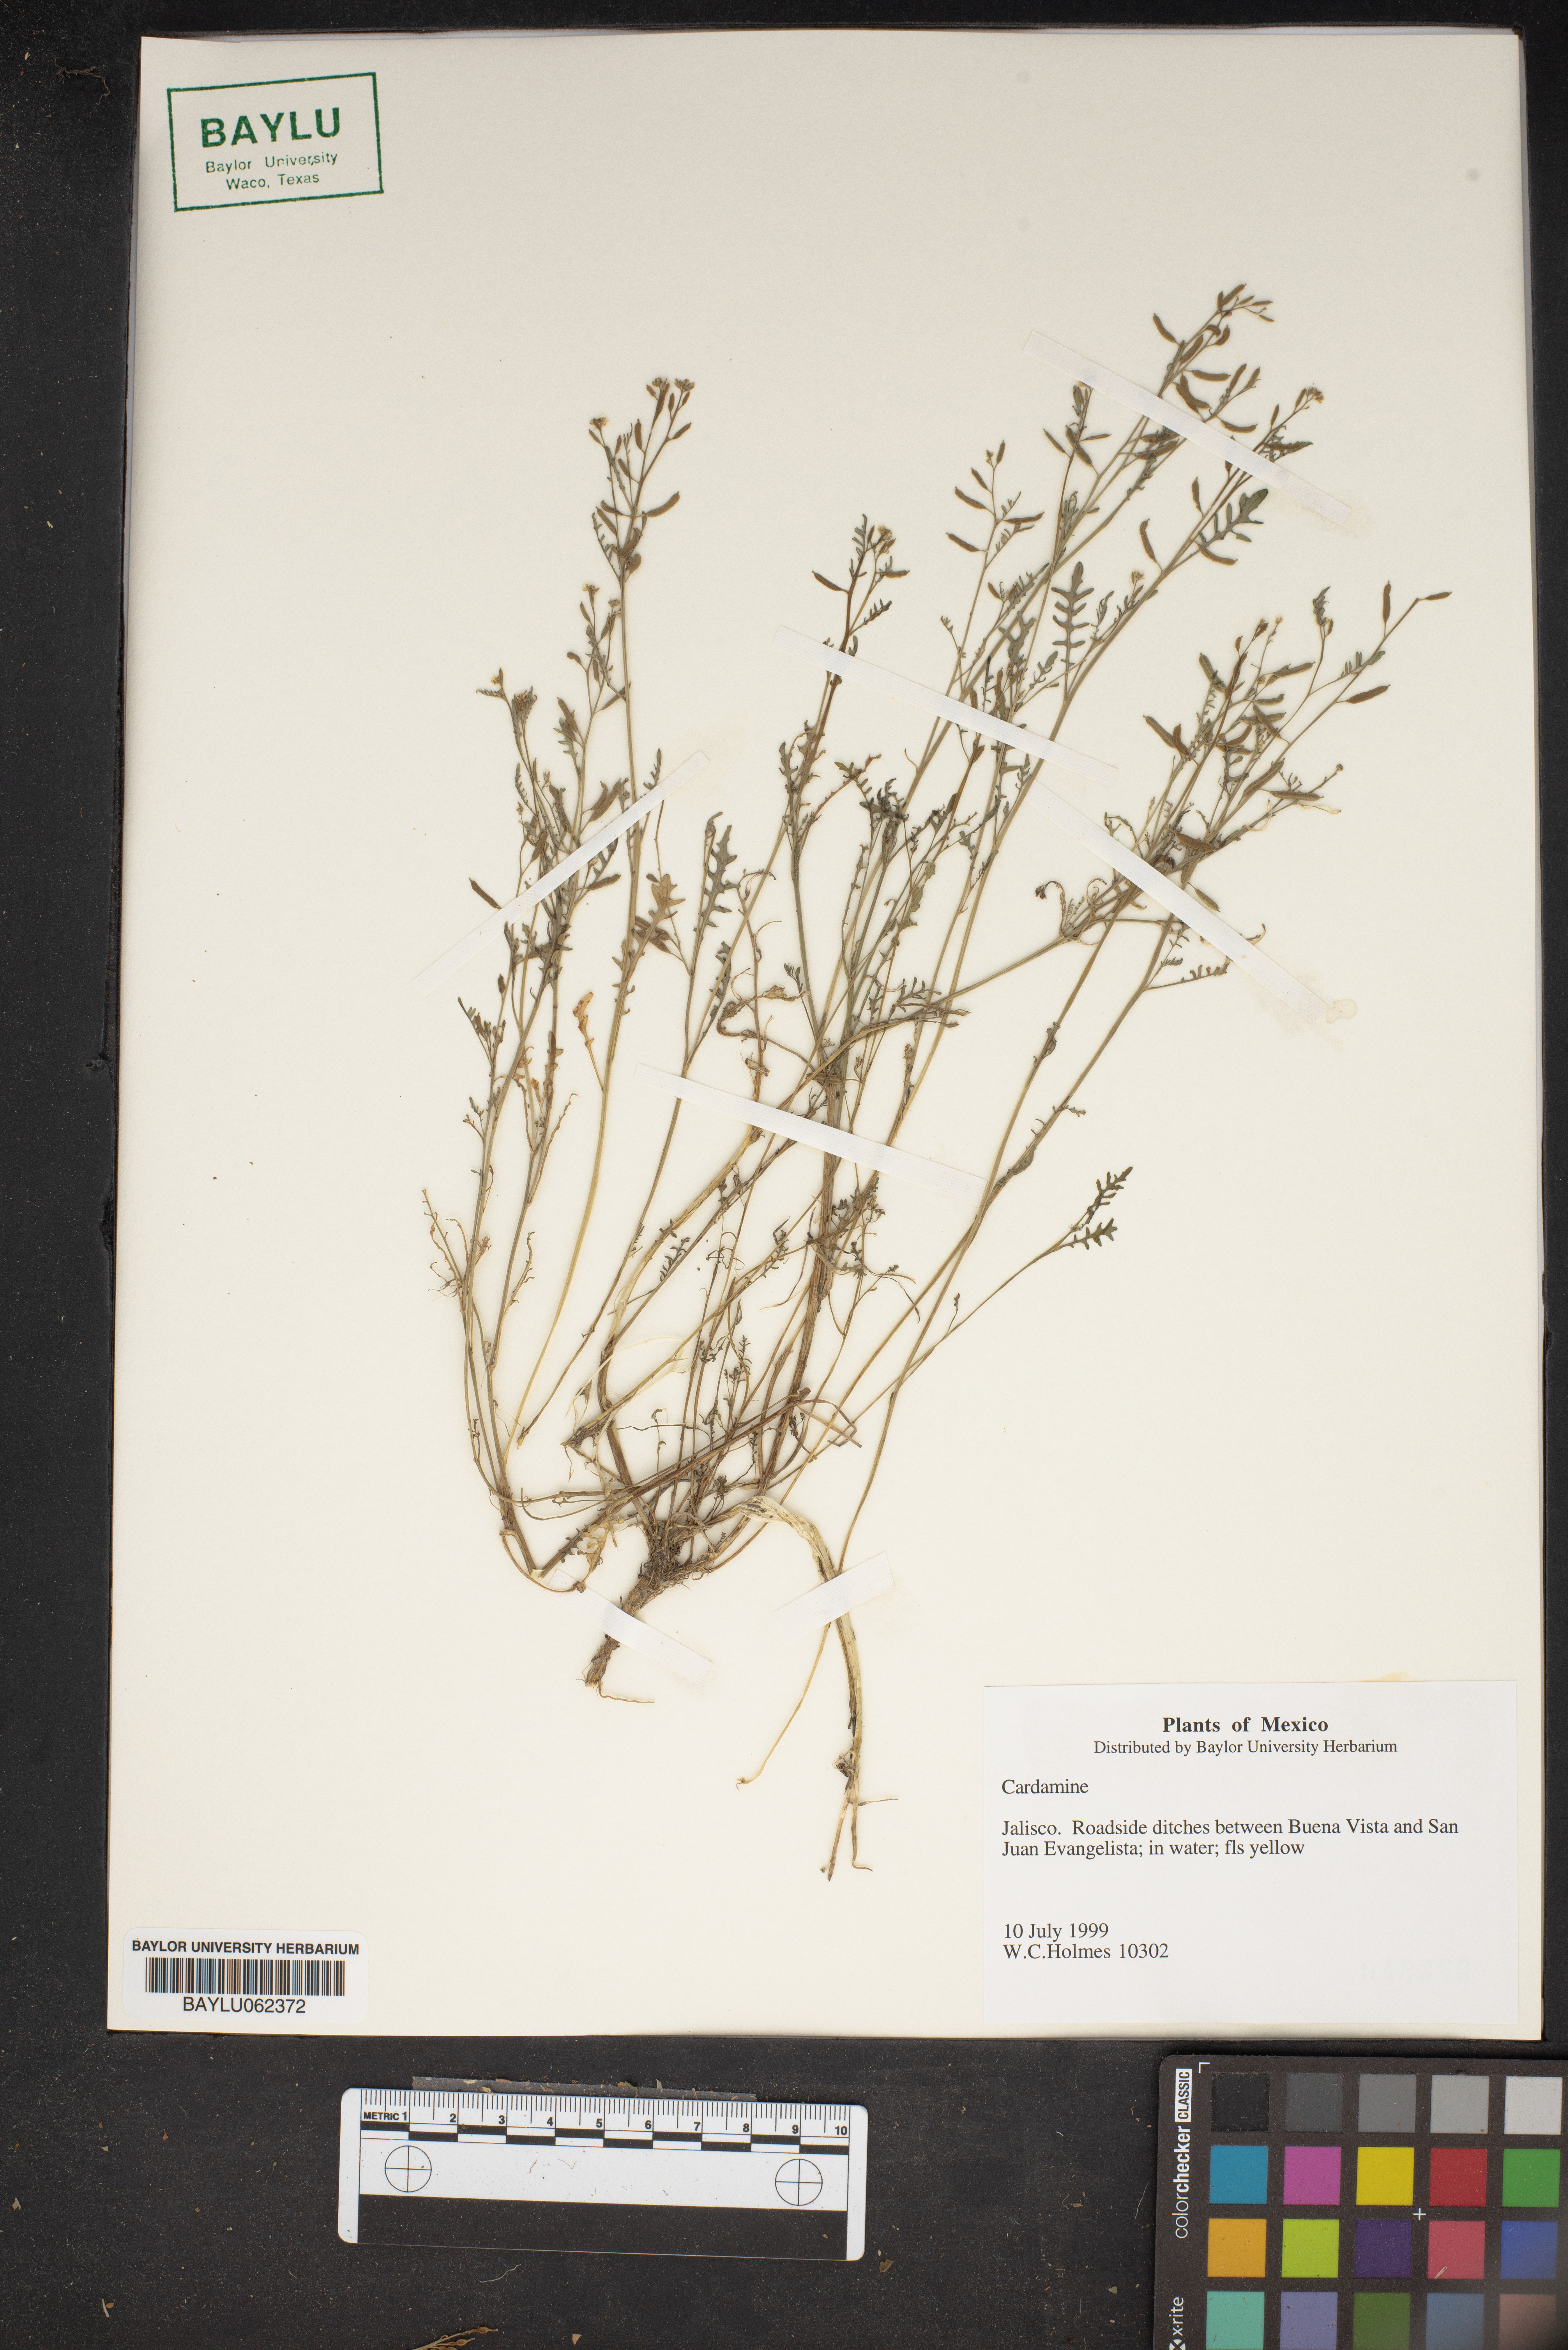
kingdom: Plantae
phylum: Tracheophyta
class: Magnoliopsida
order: Brassicales
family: Brassicaceae
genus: Cardamine
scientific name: Cardamine
